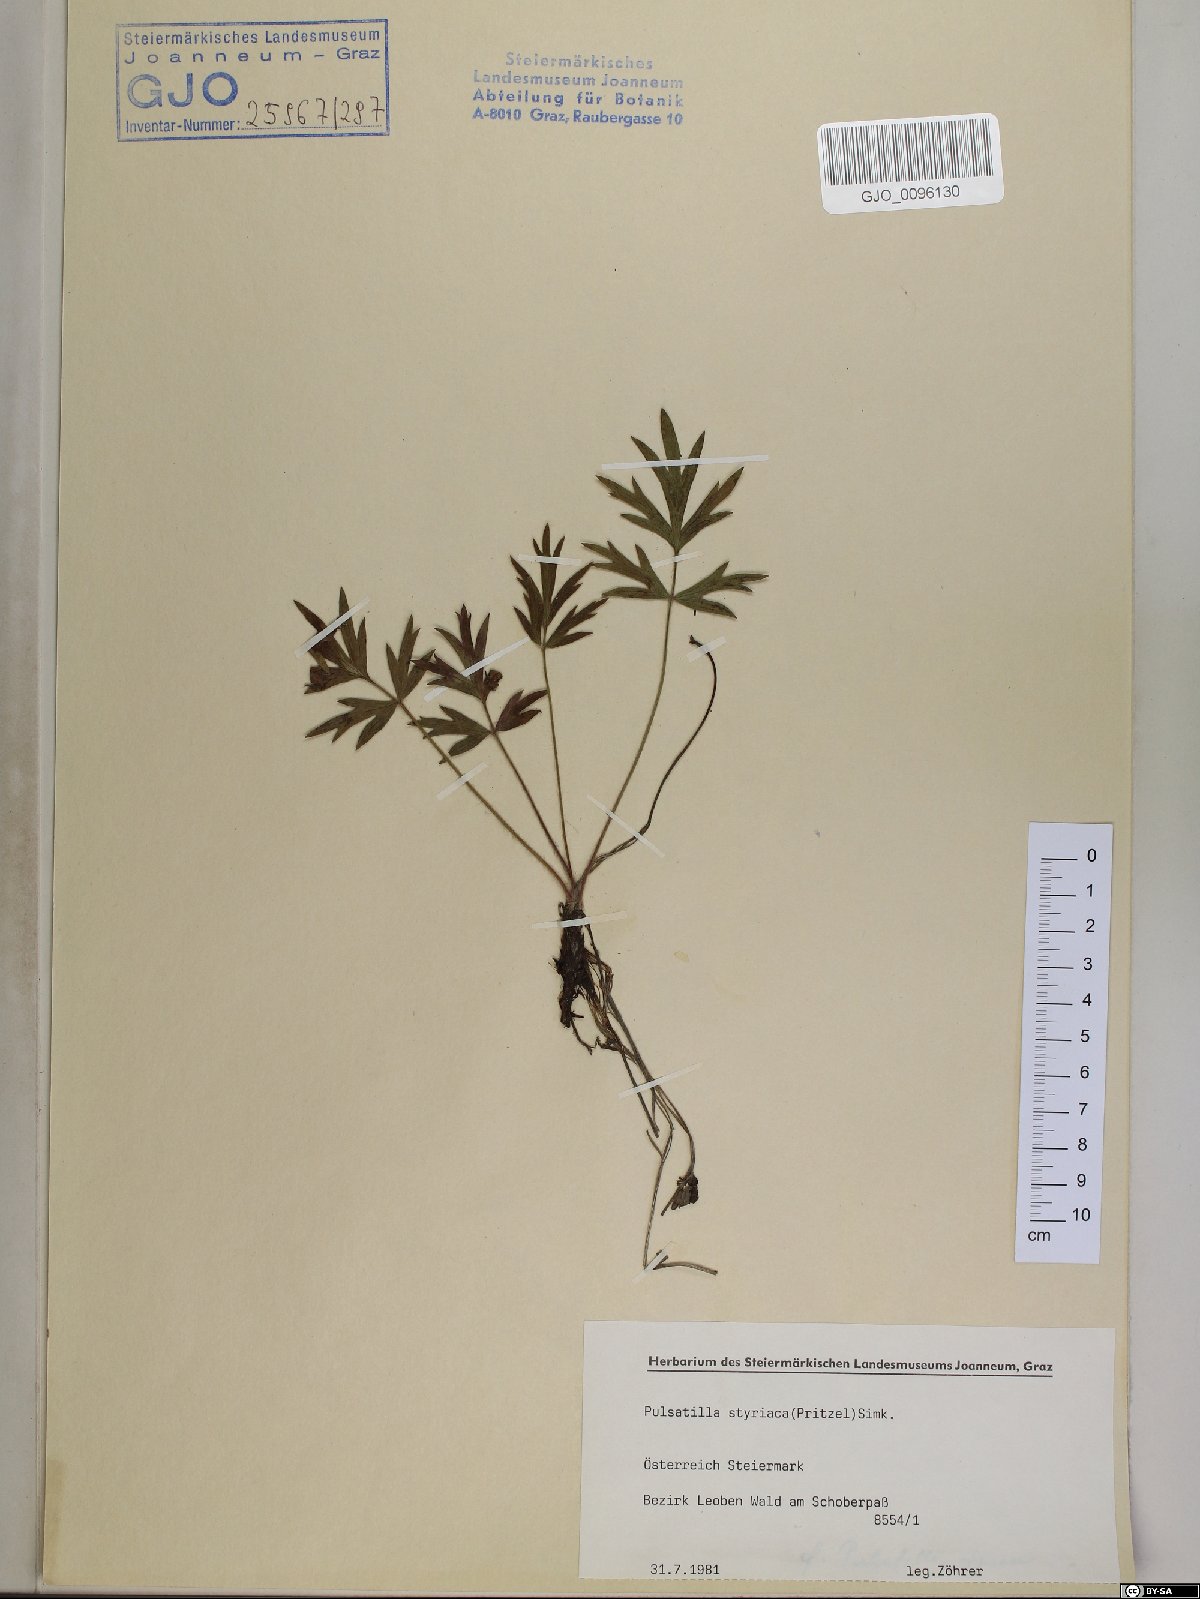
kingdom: Plantae
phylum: Tracheophyta
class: Magnoliopsida
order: Ranunculales
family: Ranunculaceae
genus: Pulsatilla
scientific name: Pulsatilla halleri
